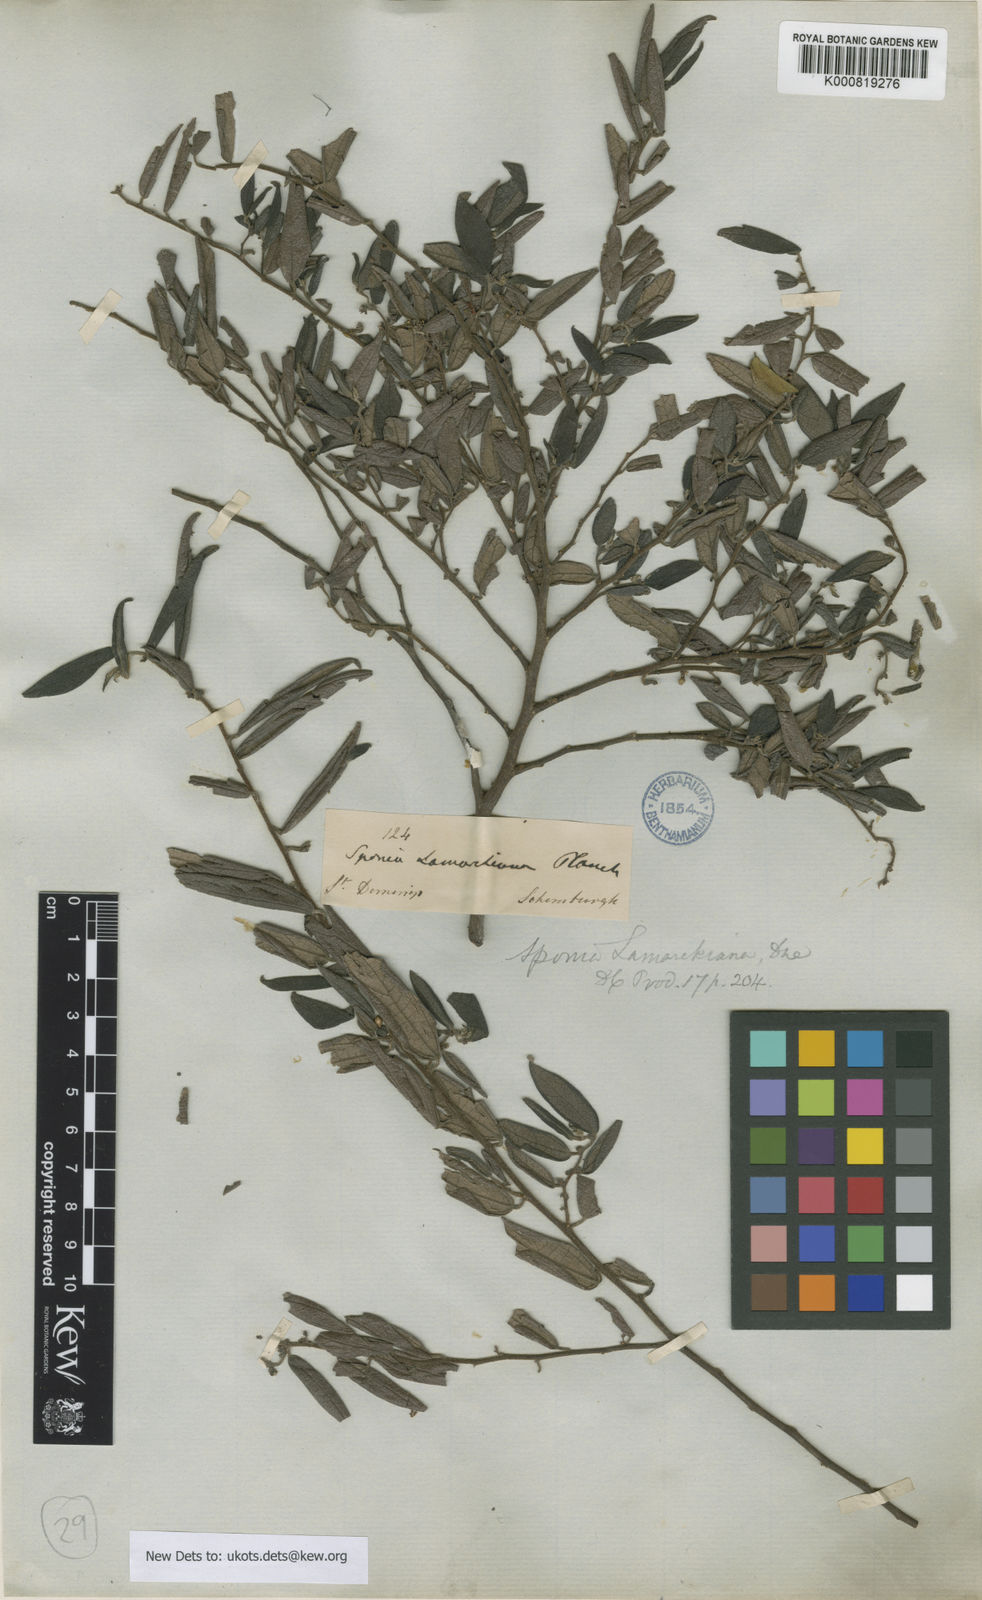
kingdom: Plantae
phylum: Tracheophyta
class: Magnoliopsida
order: Rosales
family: Cannabaceae
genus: Trema
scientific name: Trema lamarckianum
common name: Lamarck's trema
